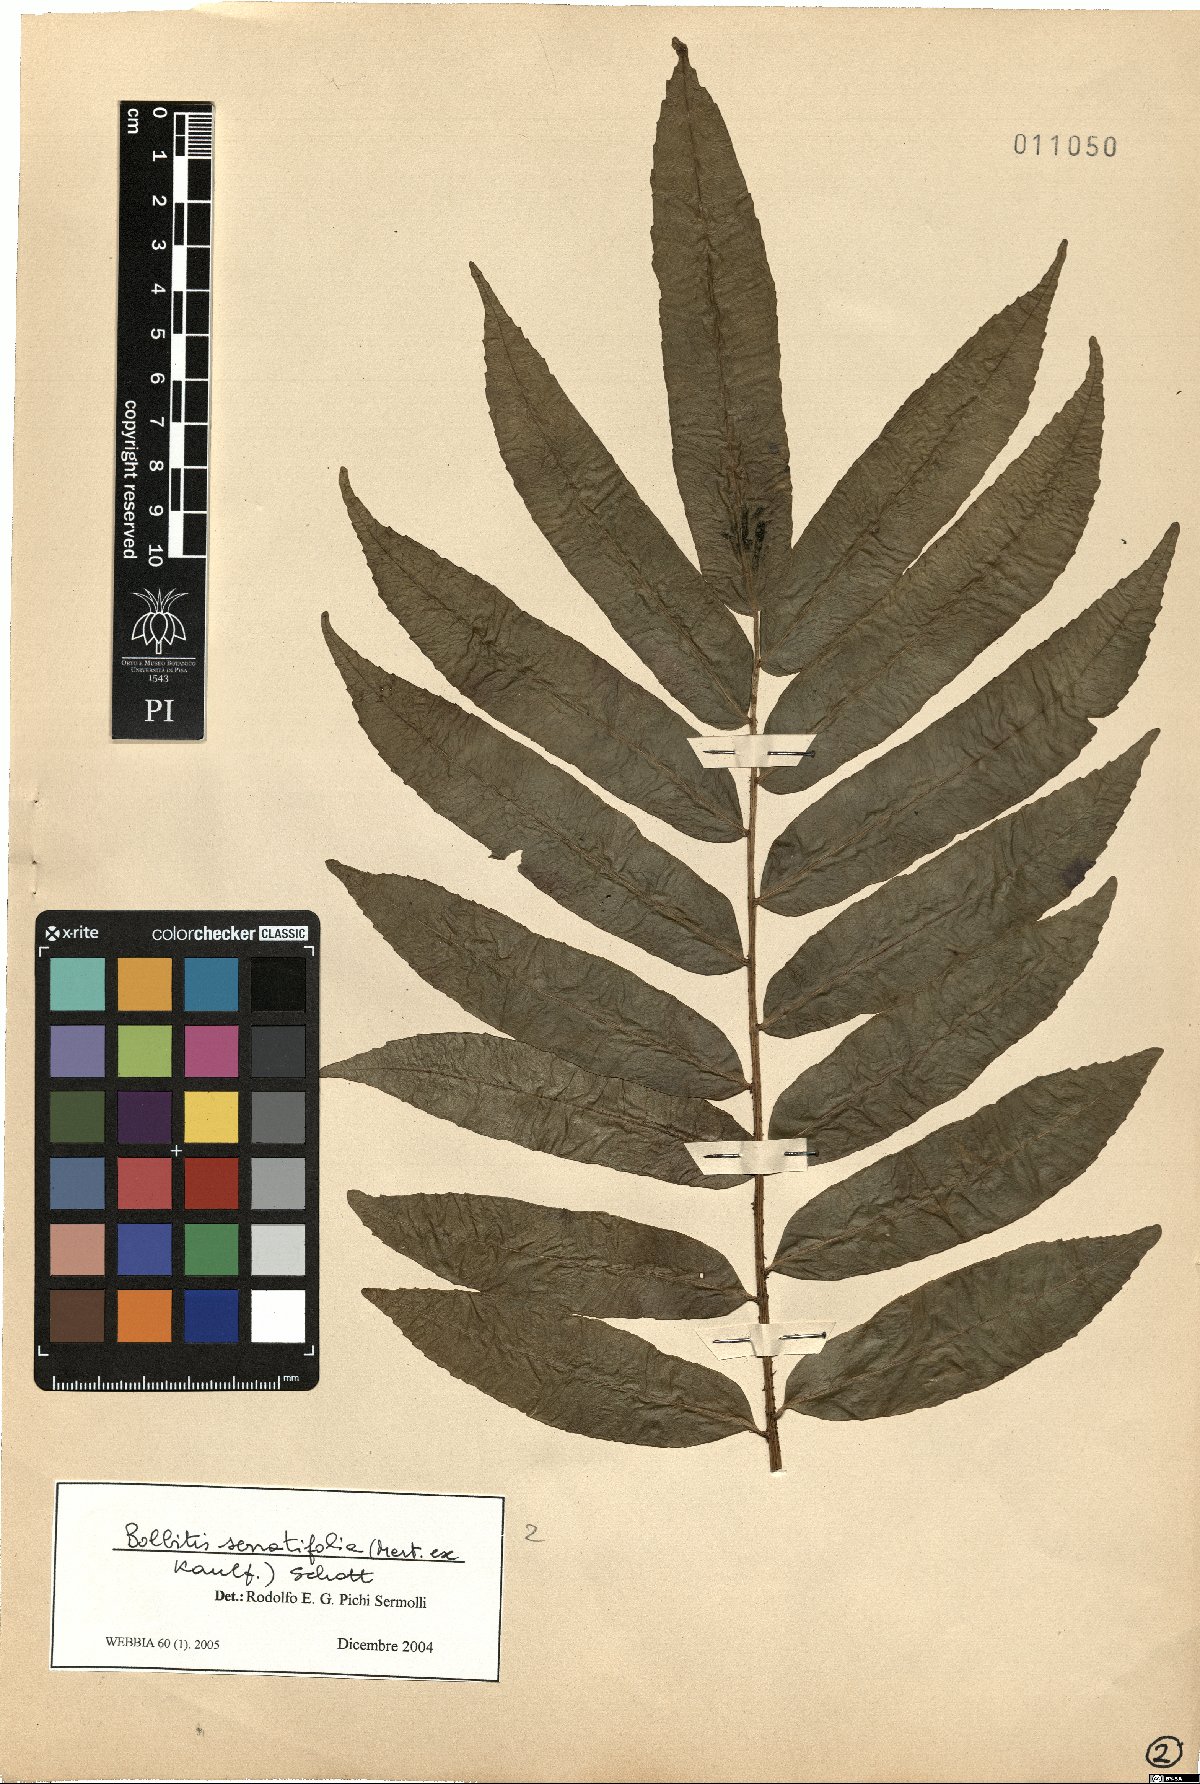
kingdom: Plantae
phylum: Tracheophyta
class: Polypodiopsida
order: Polypodiales
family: Dryopteridaceae
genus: Bolbitis
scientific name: Bolbitis serratifolia
